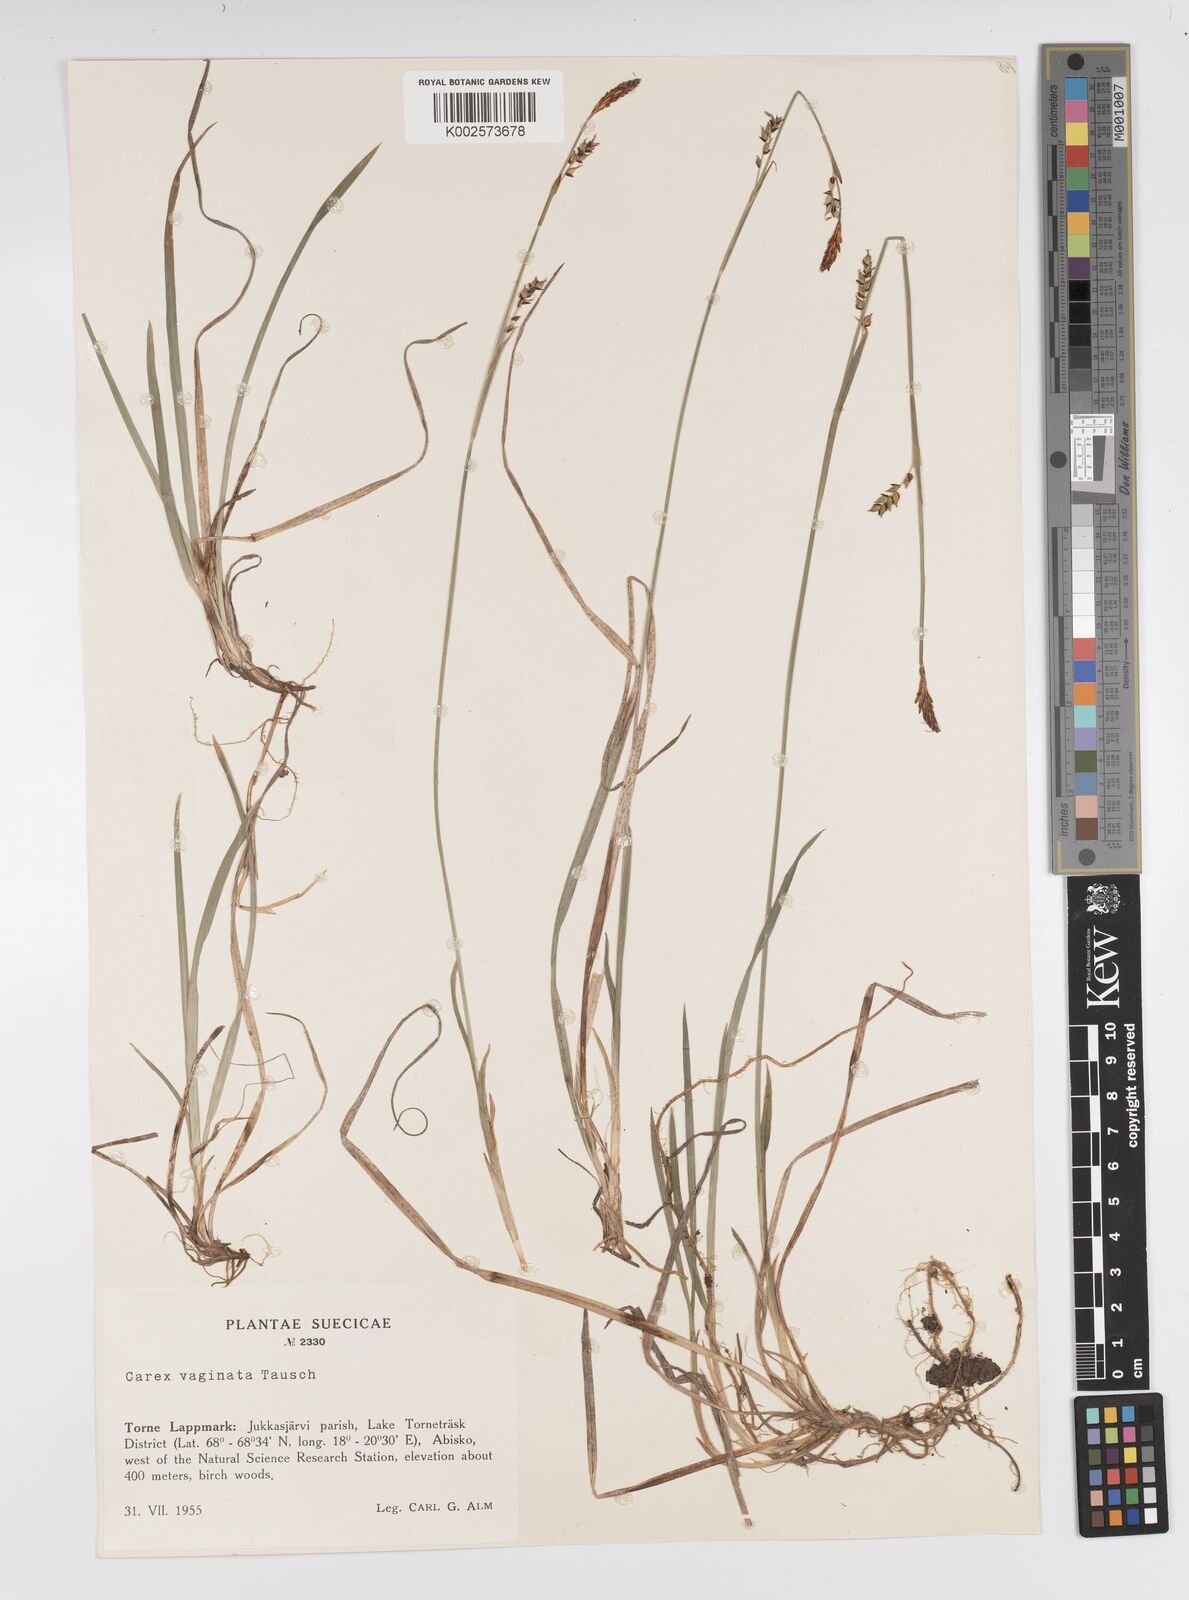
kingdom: Plantae
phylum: Tracheophyta
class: Liliopsida
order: Poales
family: Cyperaceae
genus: Carex
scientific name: Carex panicea
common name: Carnation sedge
